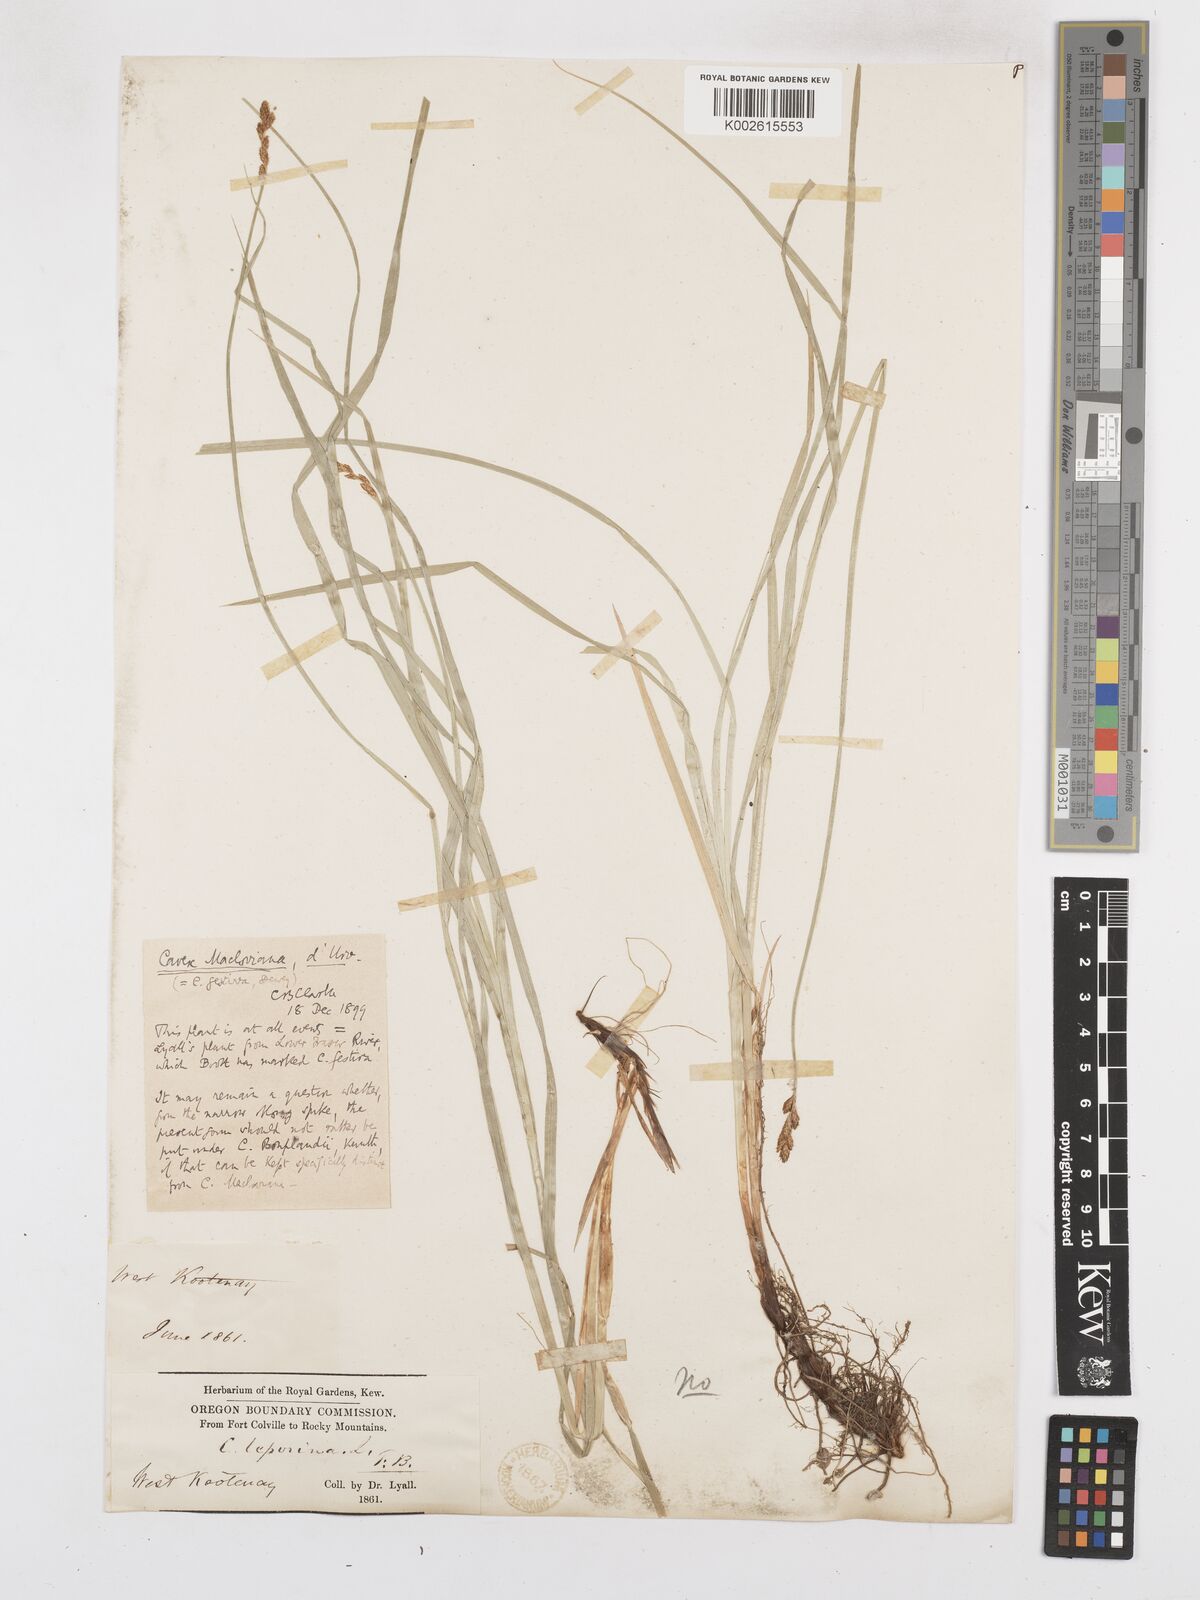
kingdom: Plantae
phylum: Tracheophyta
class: Liliopsida
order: Poales
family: Cyperaceae
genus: Carex
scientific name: Carex macloviana
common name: Falkland island sedge
